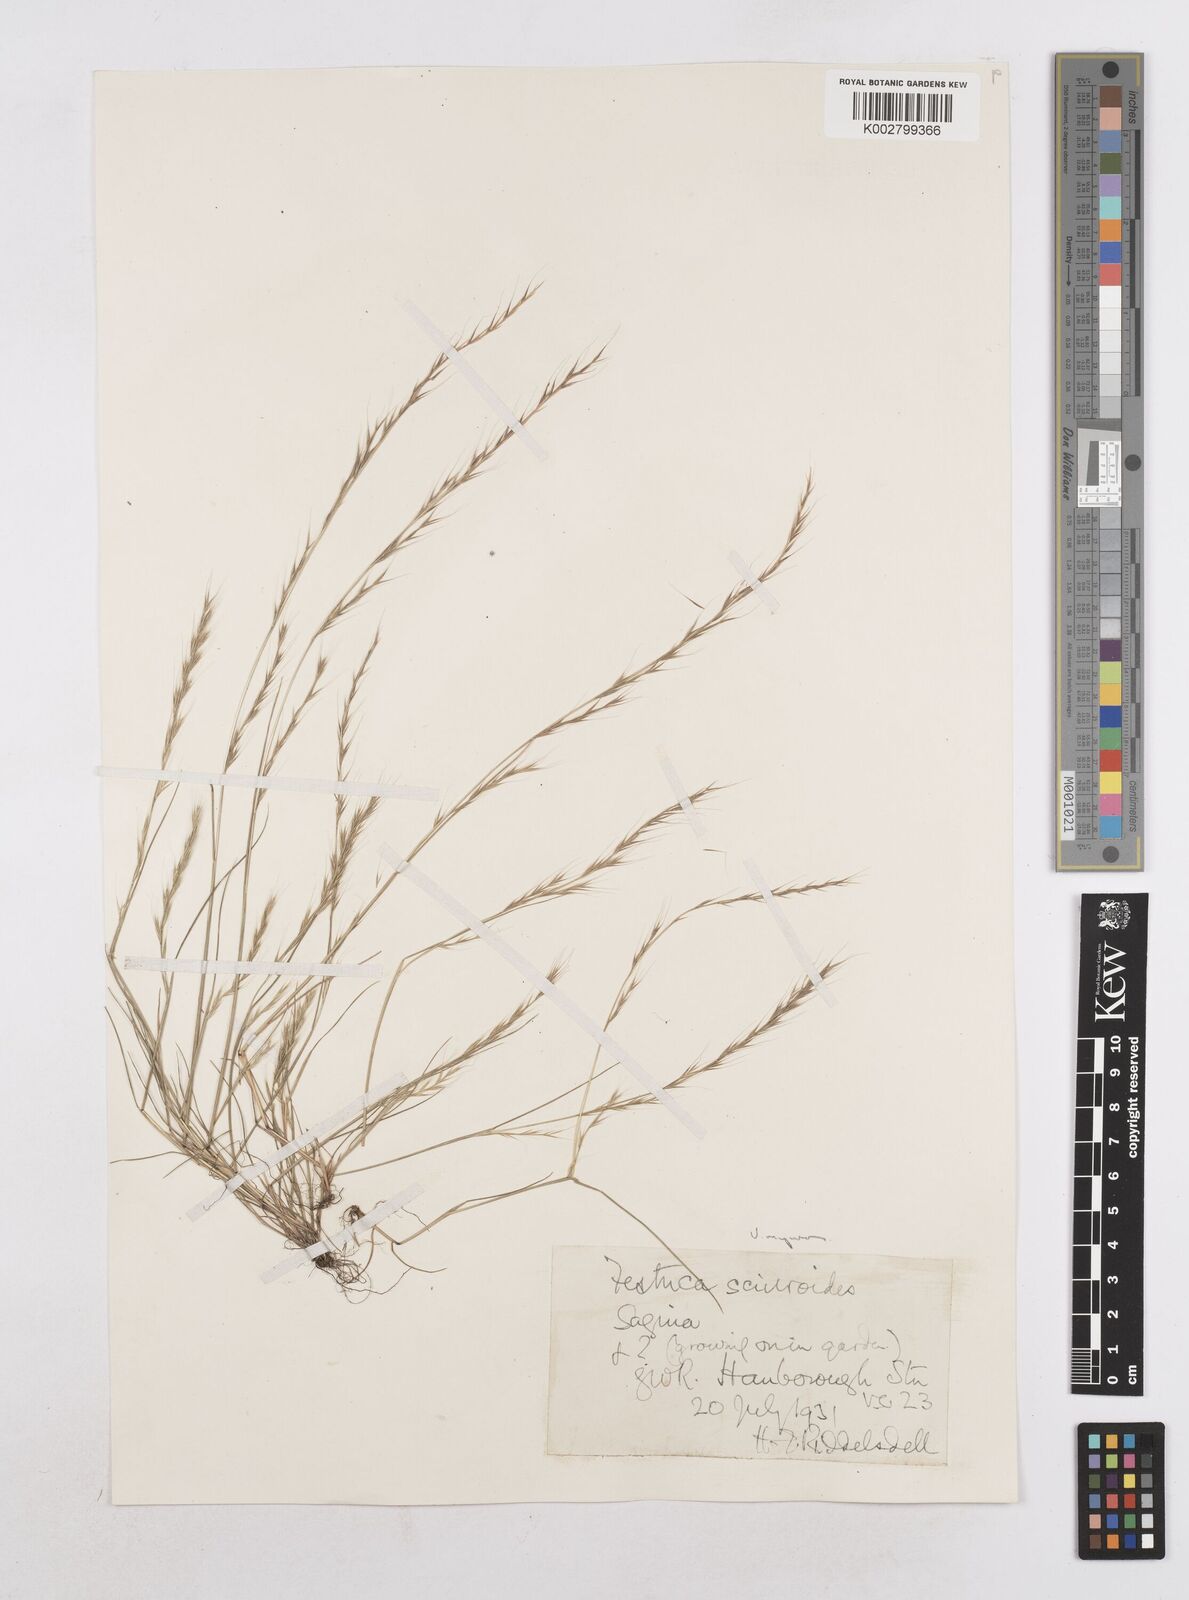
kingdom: Plantae
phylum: Tracheophyta
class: Liliopsida
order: Poales
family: Poaceae
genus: Festuca
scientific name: Festuca myuros
